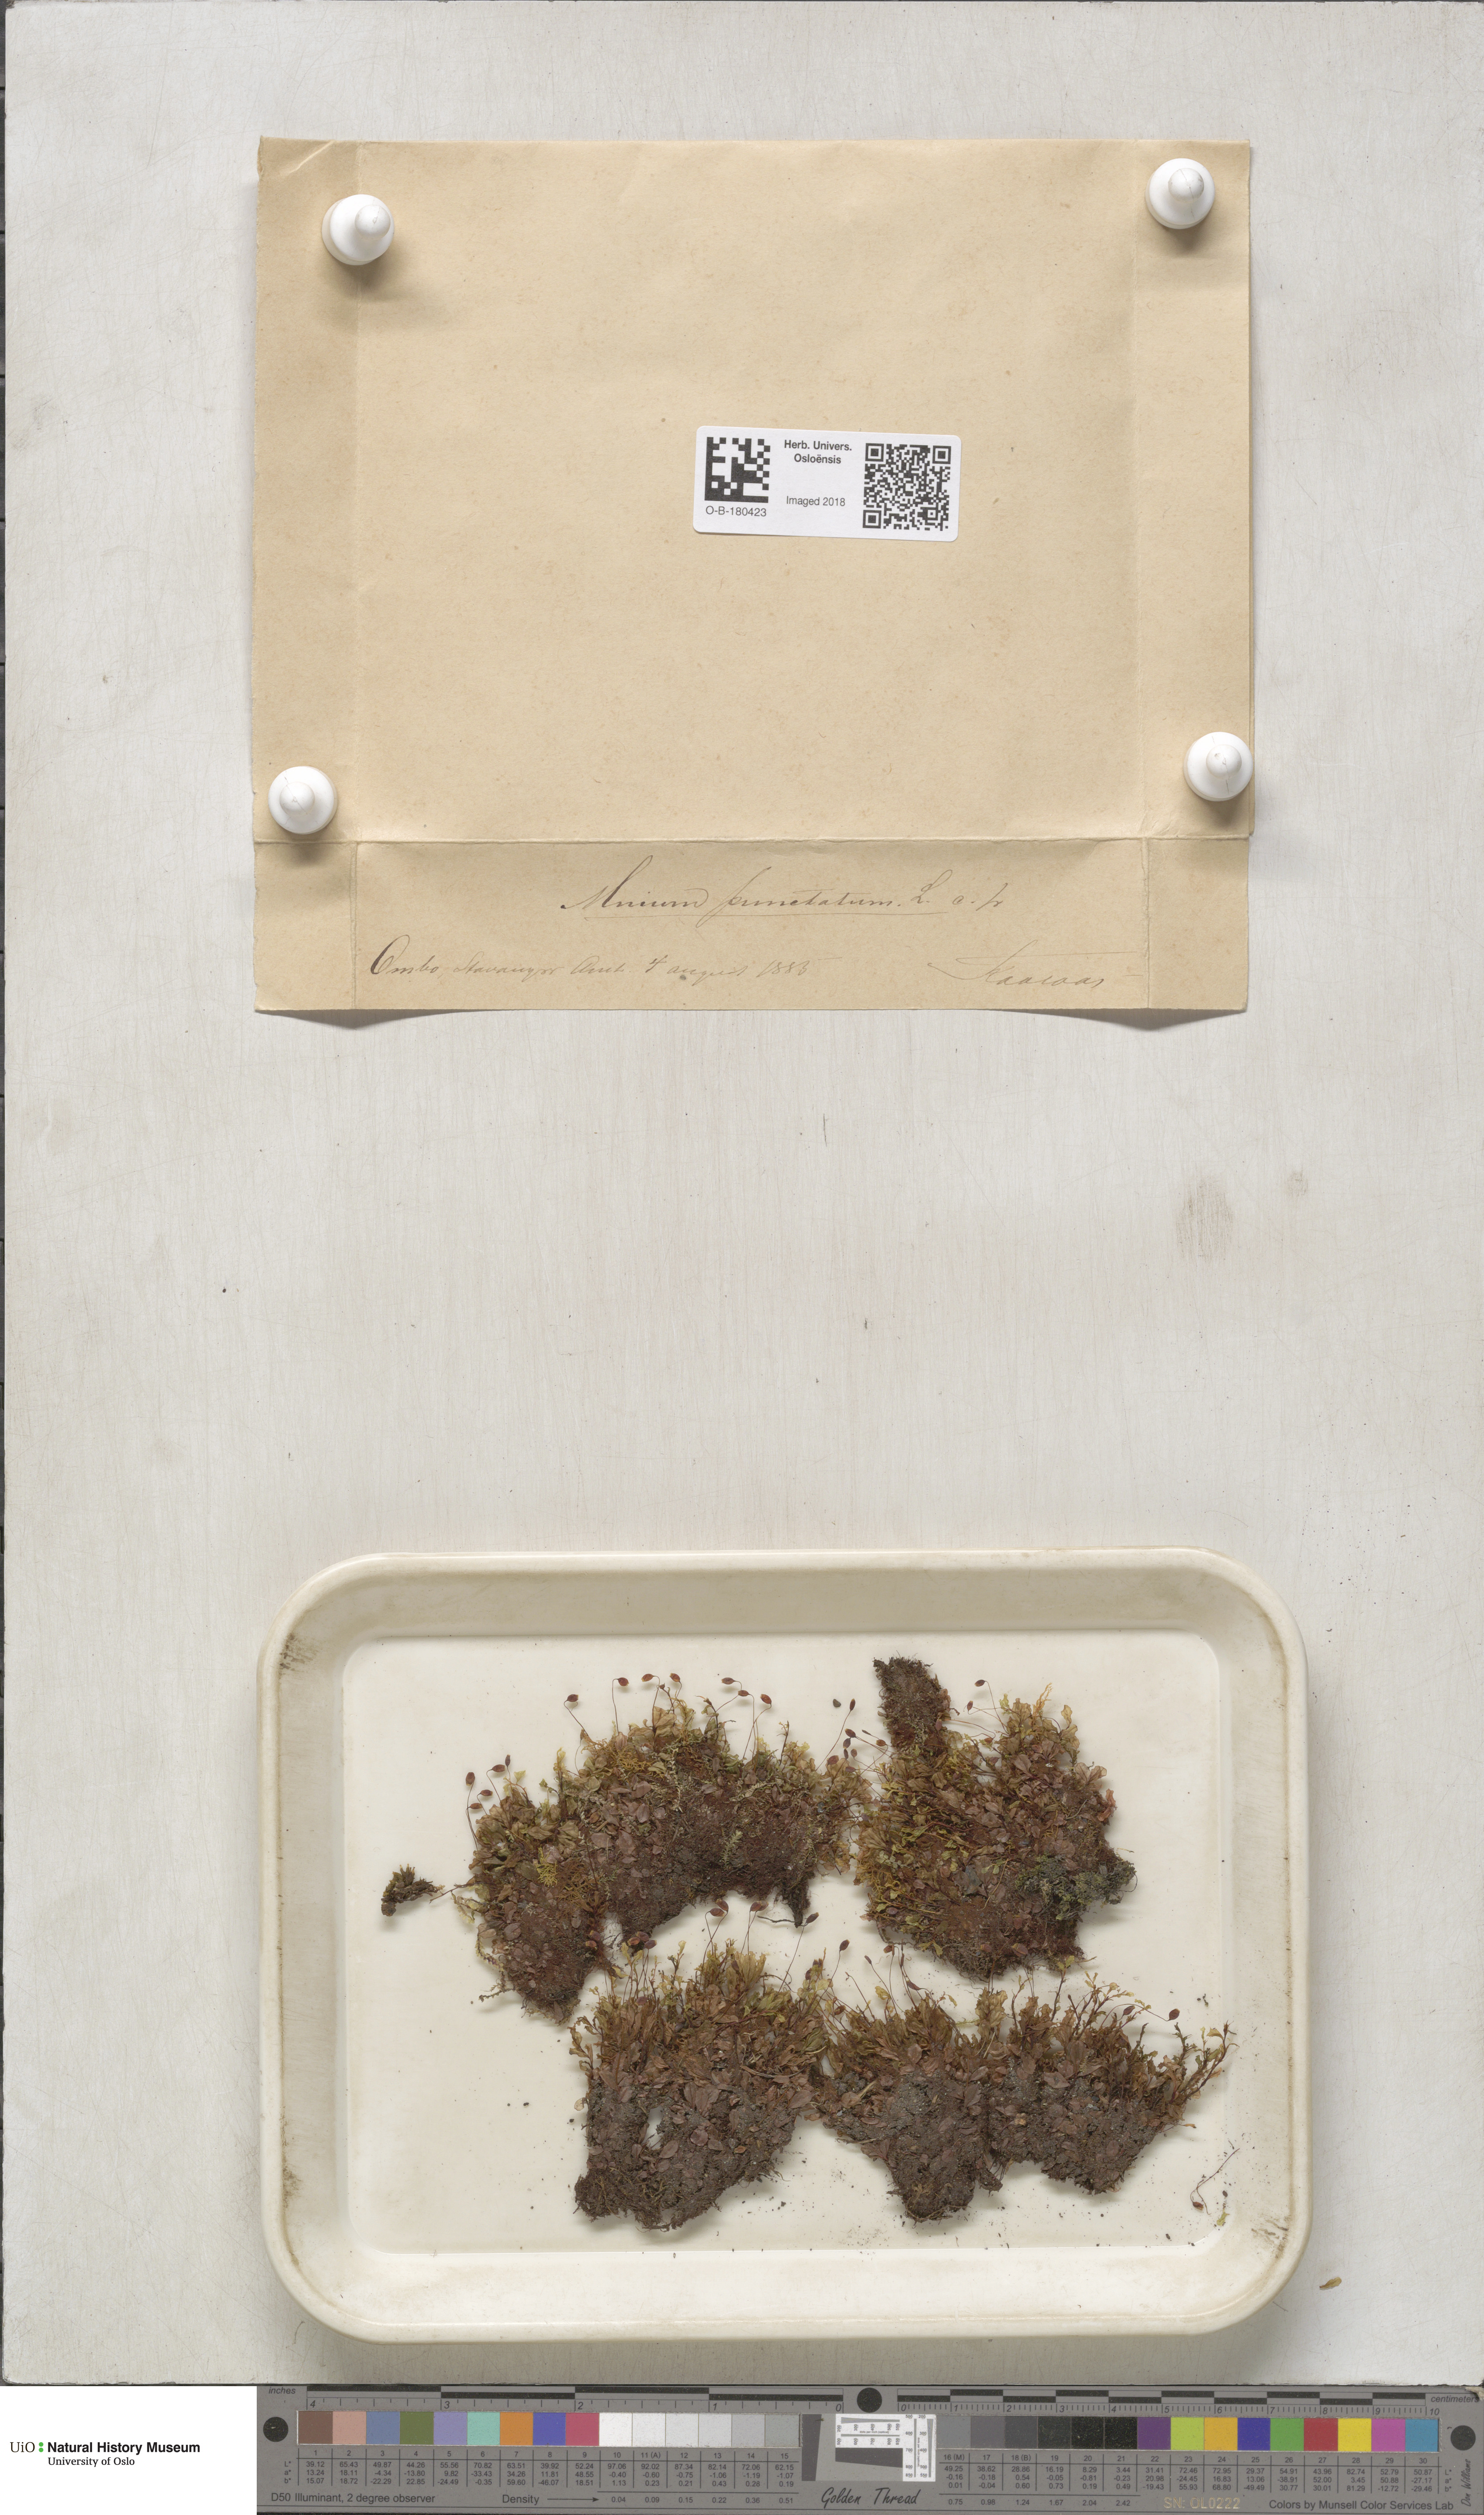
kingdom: Plantae
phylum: Bryophyta
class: Bryopsida
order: Bryales
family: Mniaceae
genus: Rhizomnium
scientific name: Rhizomnium punctatum
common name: Dotted leafy moss
